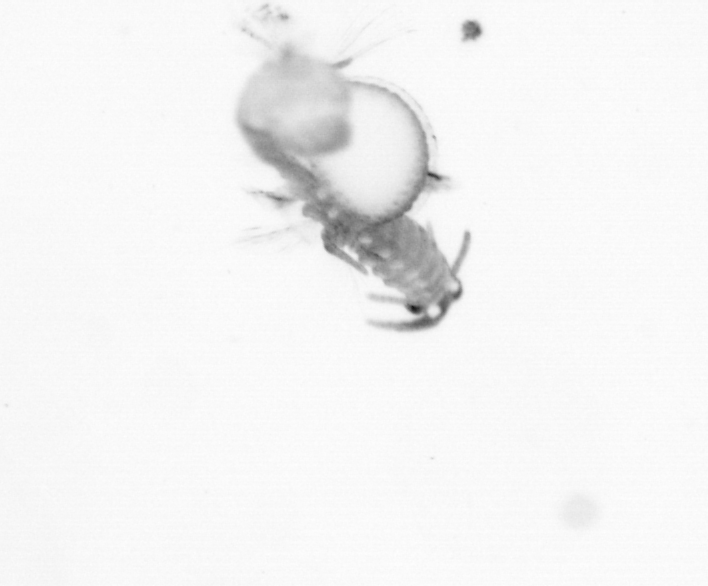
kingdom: Animalia
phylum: Annelida
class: Polychaeta
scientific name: Polychaeta
